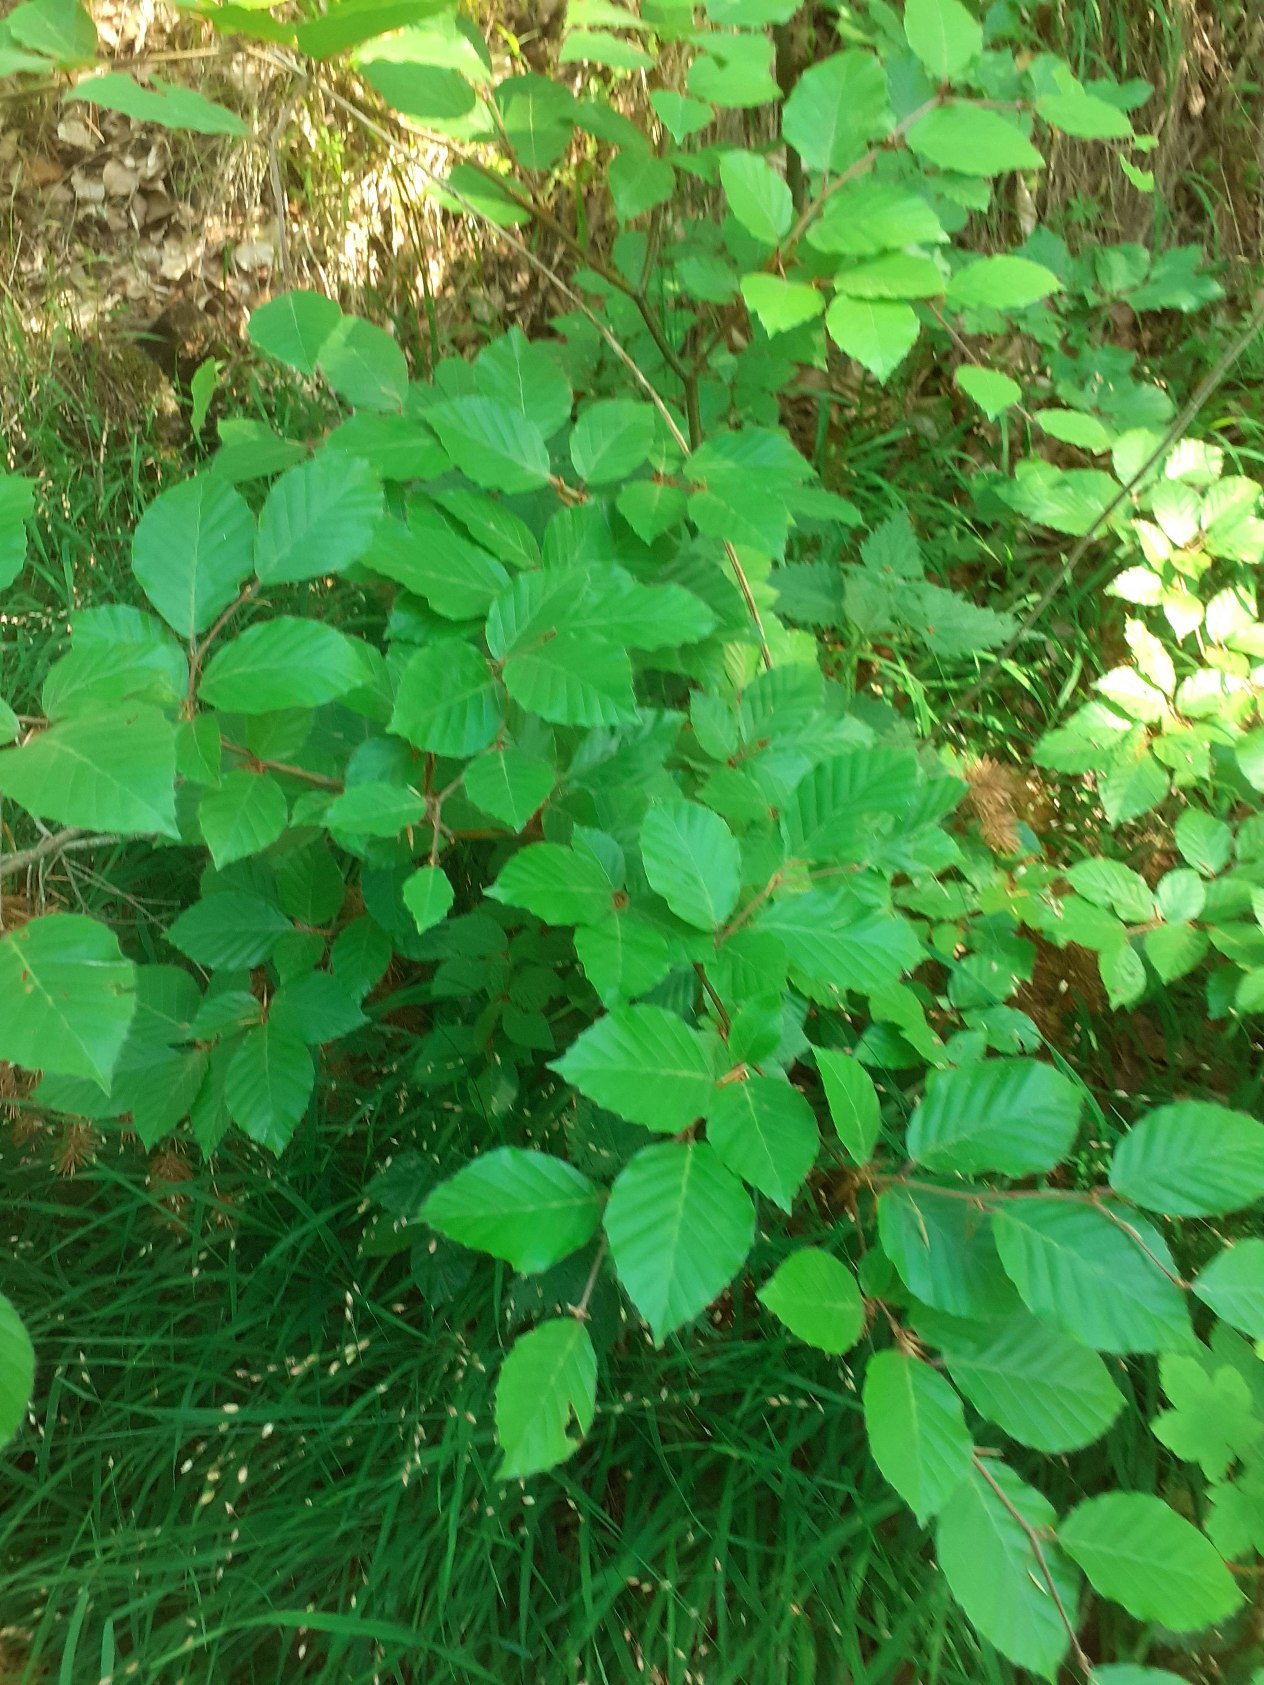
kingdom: Plantae
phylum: Tracheophyta
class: Magnoliopsida
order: Fagales
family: Fagaceae
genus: Fagus
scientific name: Fagus sylvatica
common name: Bøg
